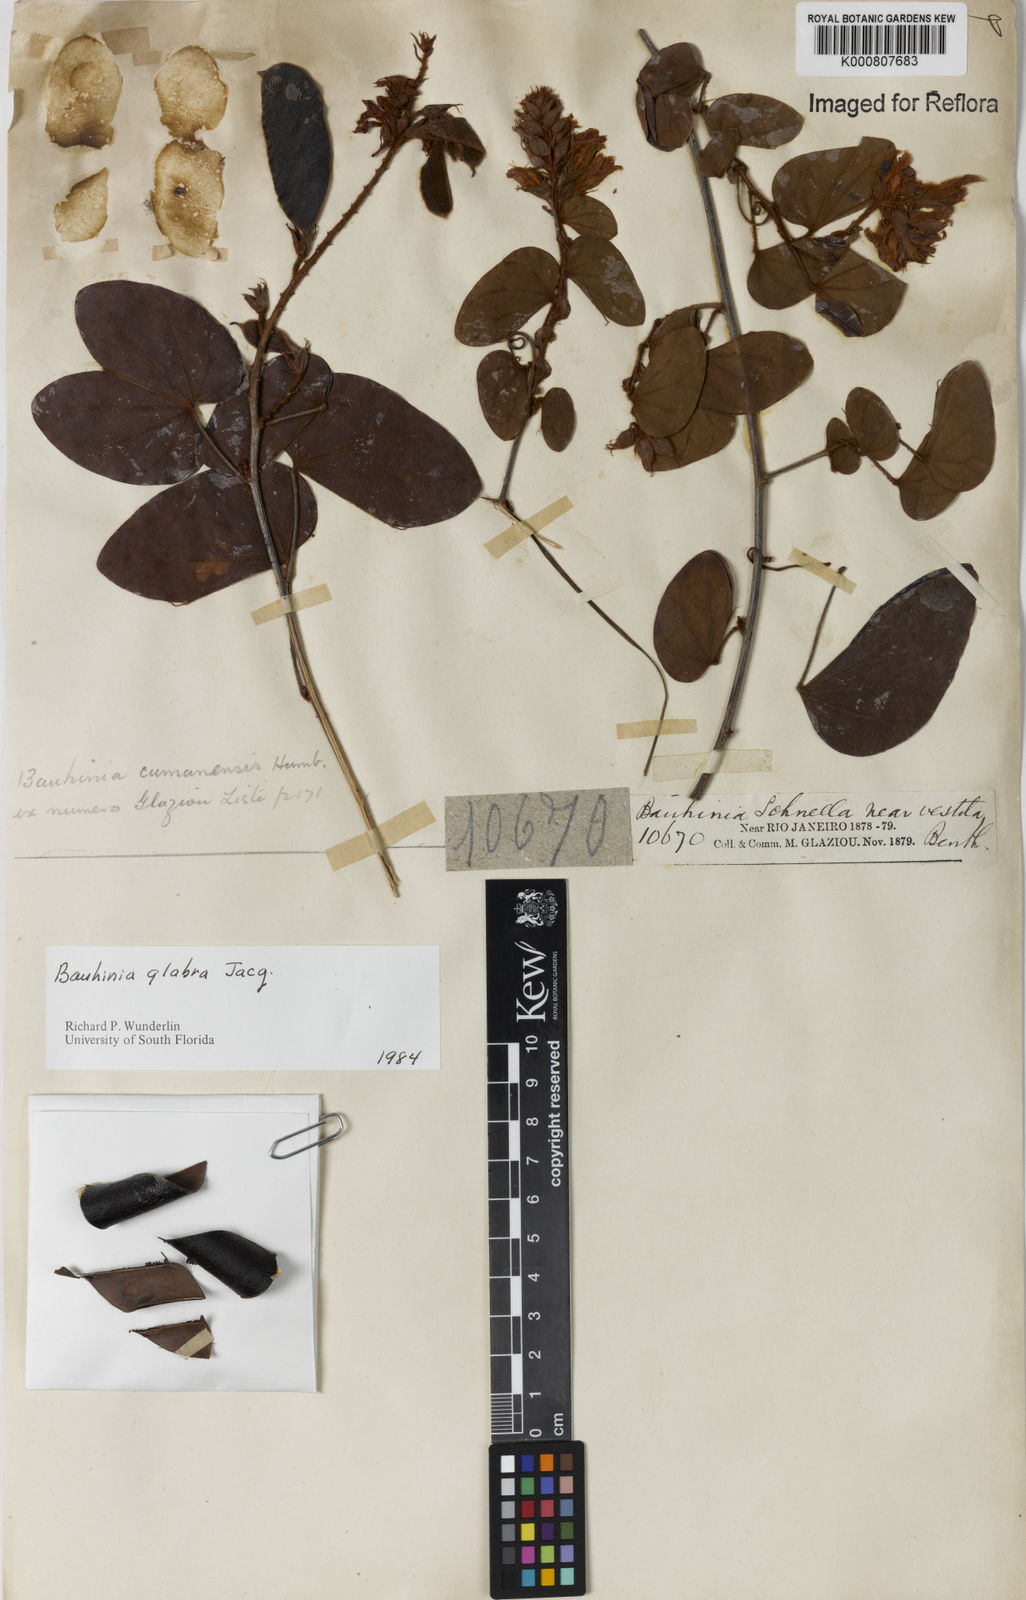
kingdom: Plantae
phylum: Tracheophyta
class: Magnoliopsida
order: Fabales
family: Fabaceae
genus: Schnella
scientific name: Schnella glabra
